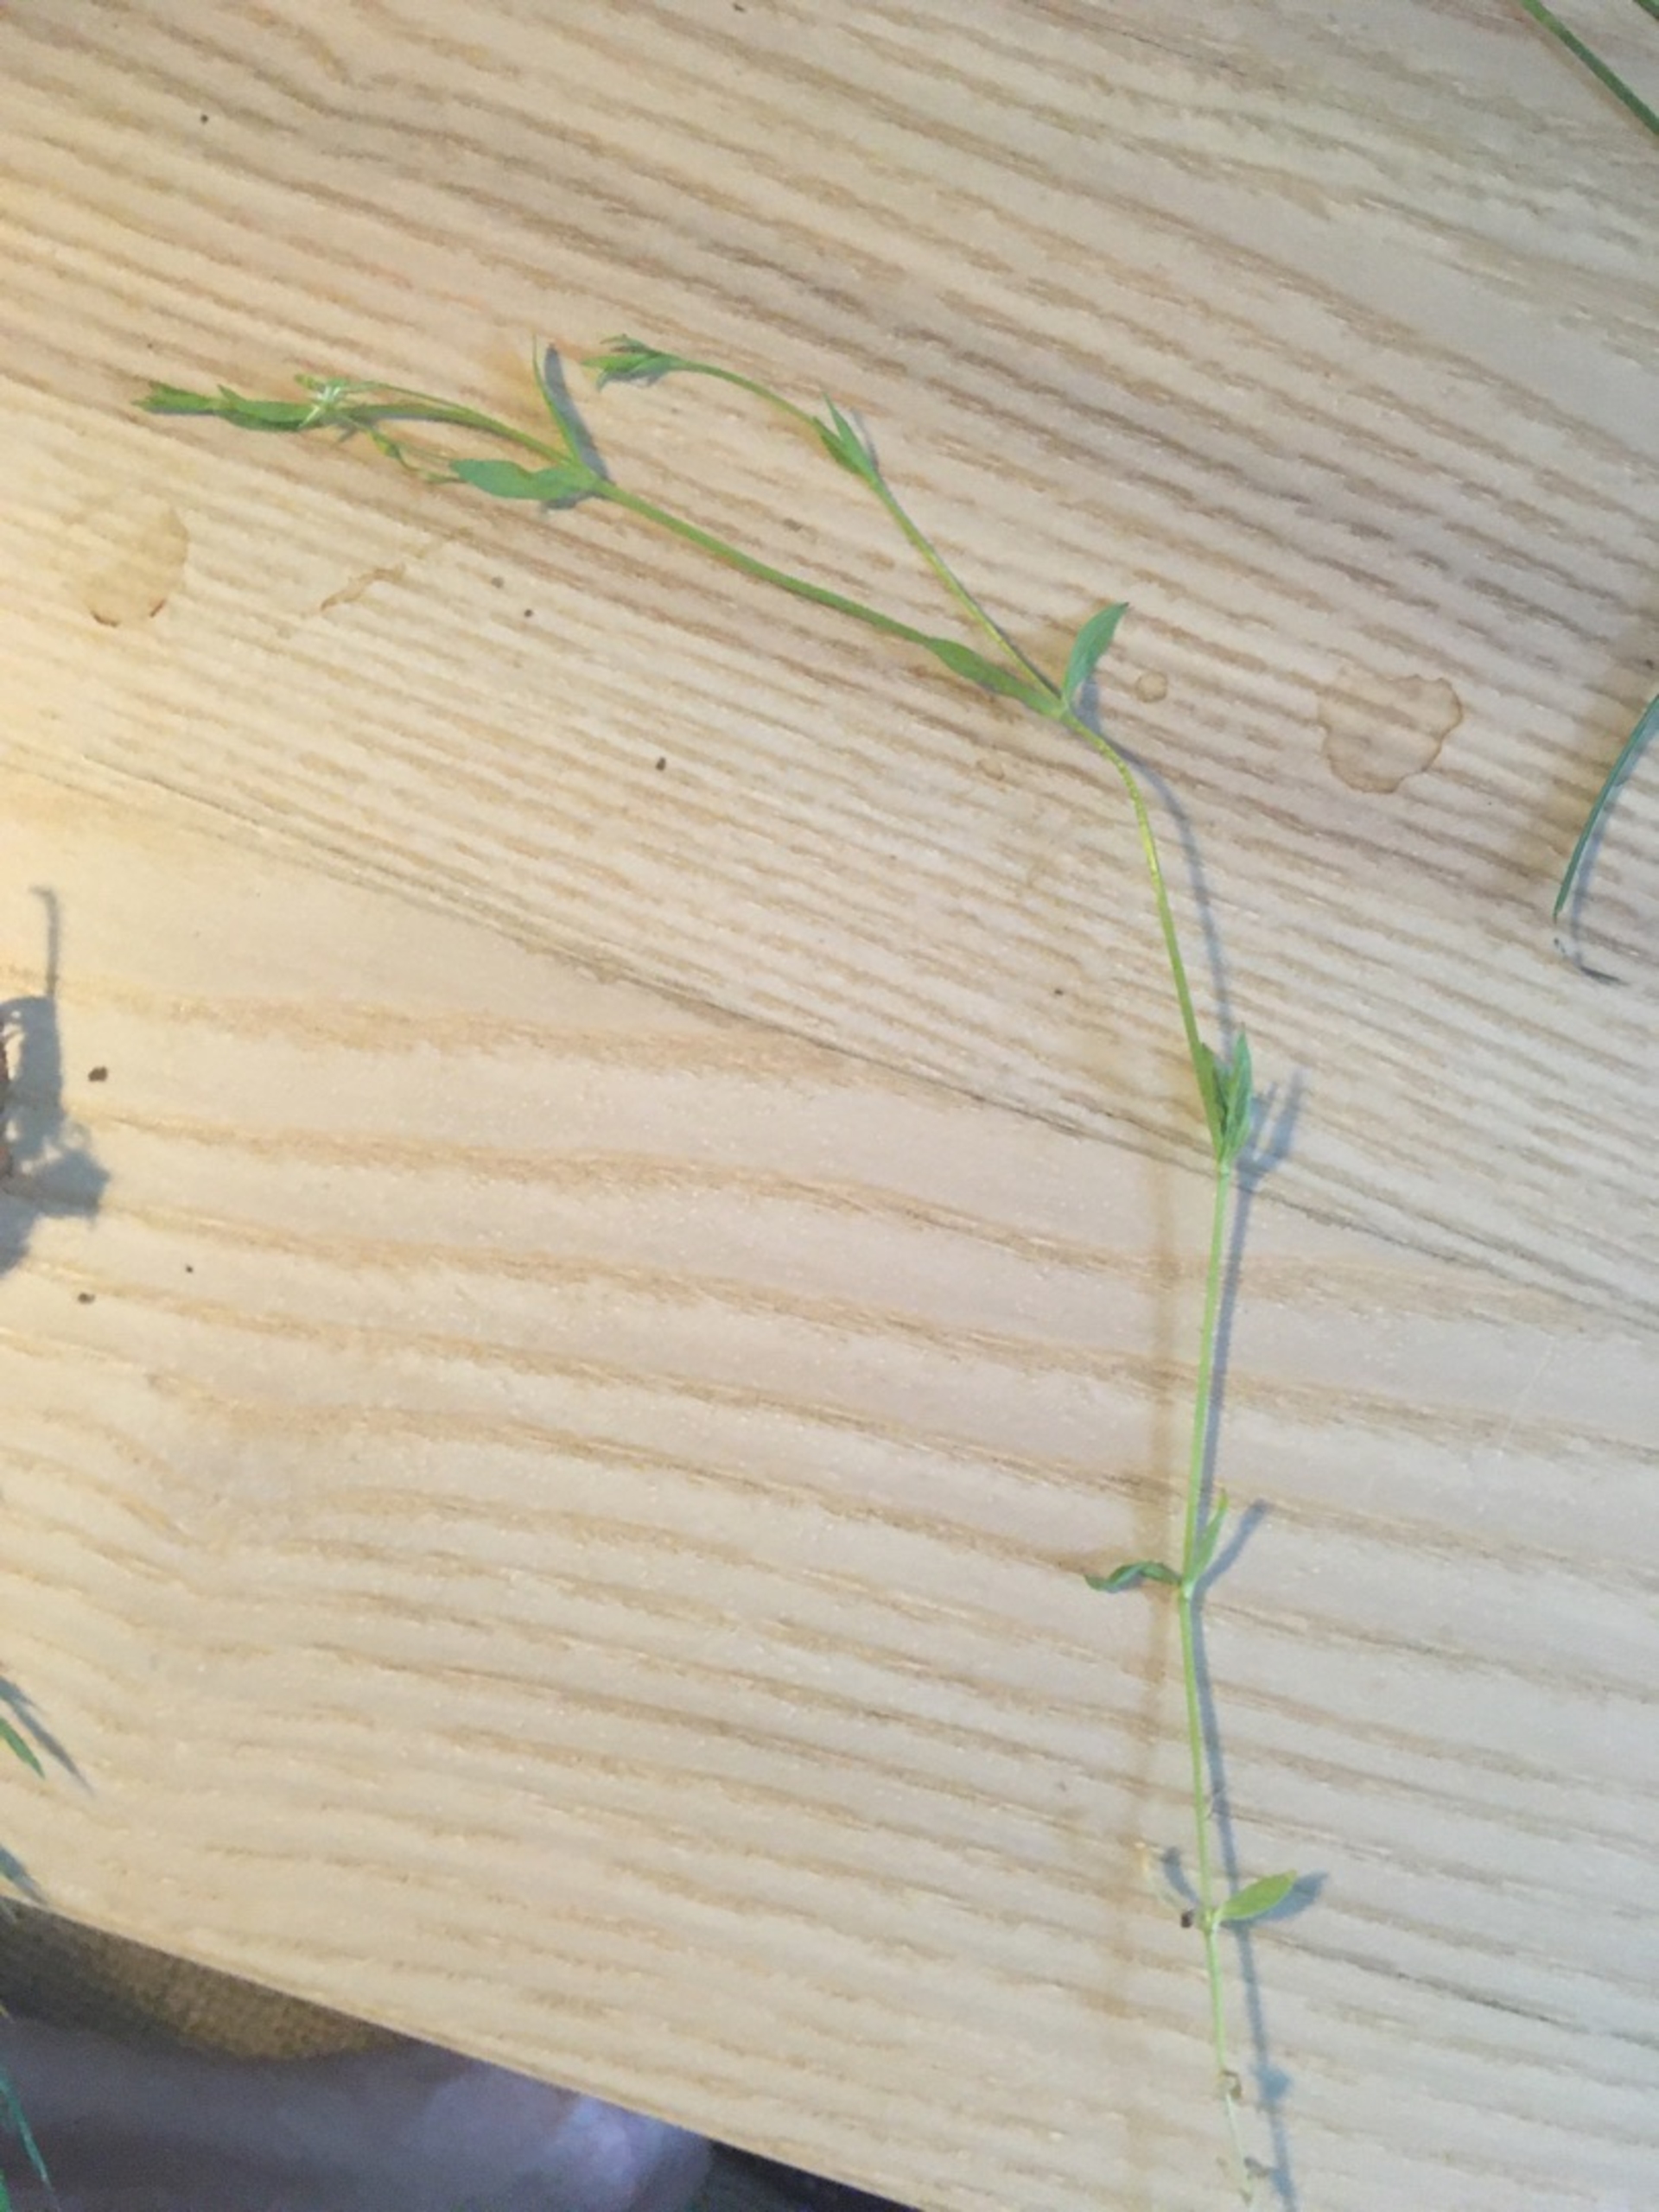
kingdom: Plantae
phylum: Tracheophyta
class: Magnoliopsida
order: Caryophyllales
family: Caryophyllaceae
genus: Stellaria
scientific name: Stellaria alsine
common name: Sump-fladstjerne
